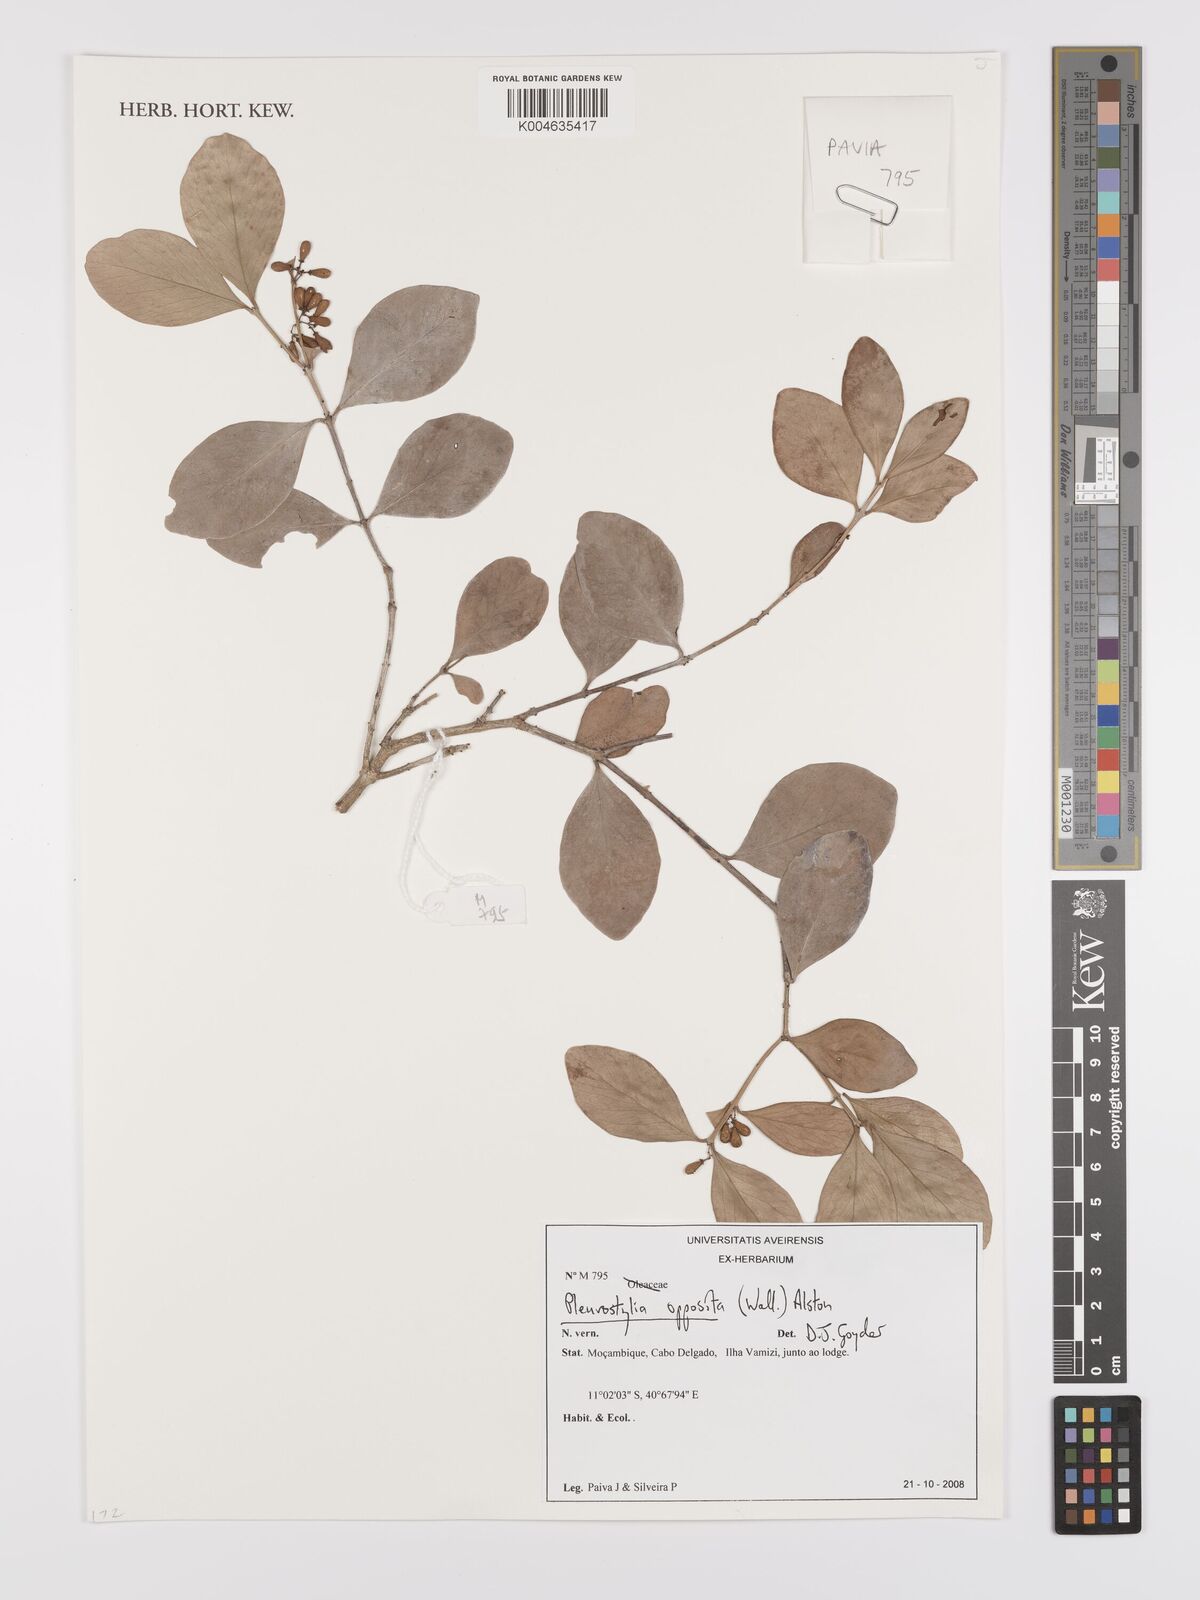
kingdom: Plantae
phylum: Tracheophyta
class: Magnoliopsida
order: Celastrales
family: Celastraceae
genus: Pleurostylia
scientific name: Pleurostylia opposita
